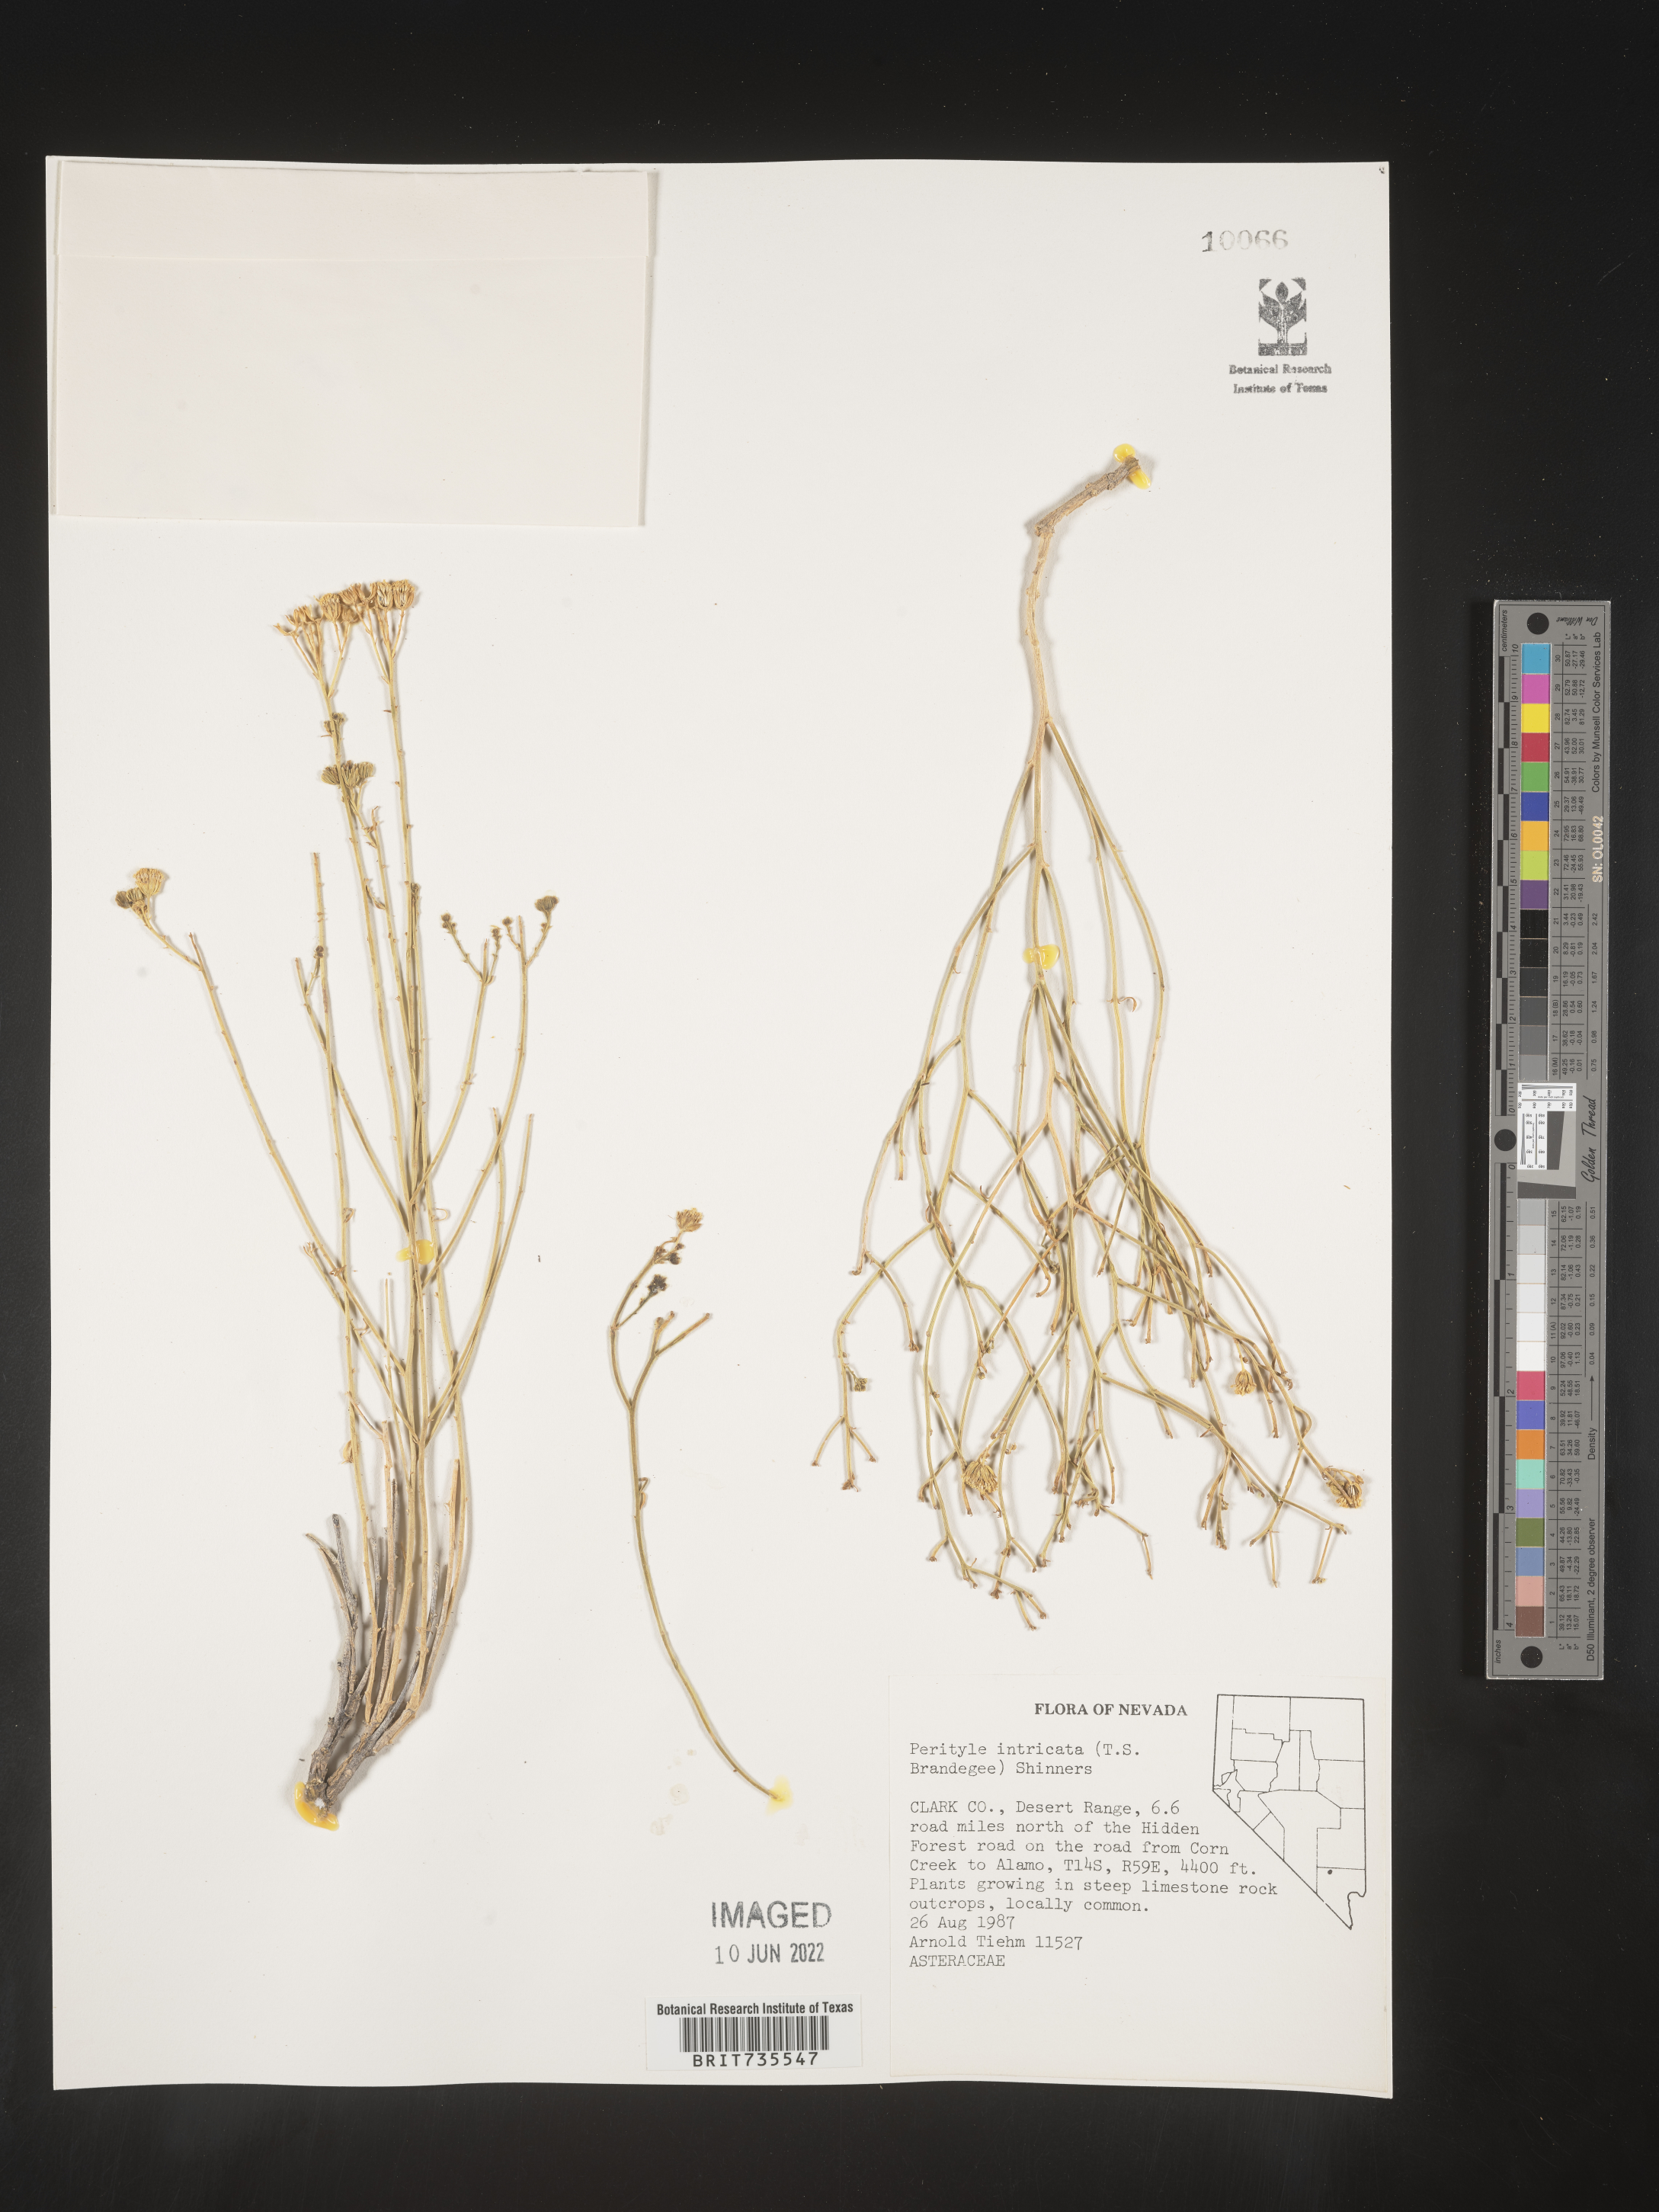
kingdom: Plantae
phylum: Tracheophyta
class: Magnoliopsida
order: Asterales
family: Asteraceae
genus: Perityle
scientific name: Perityle
